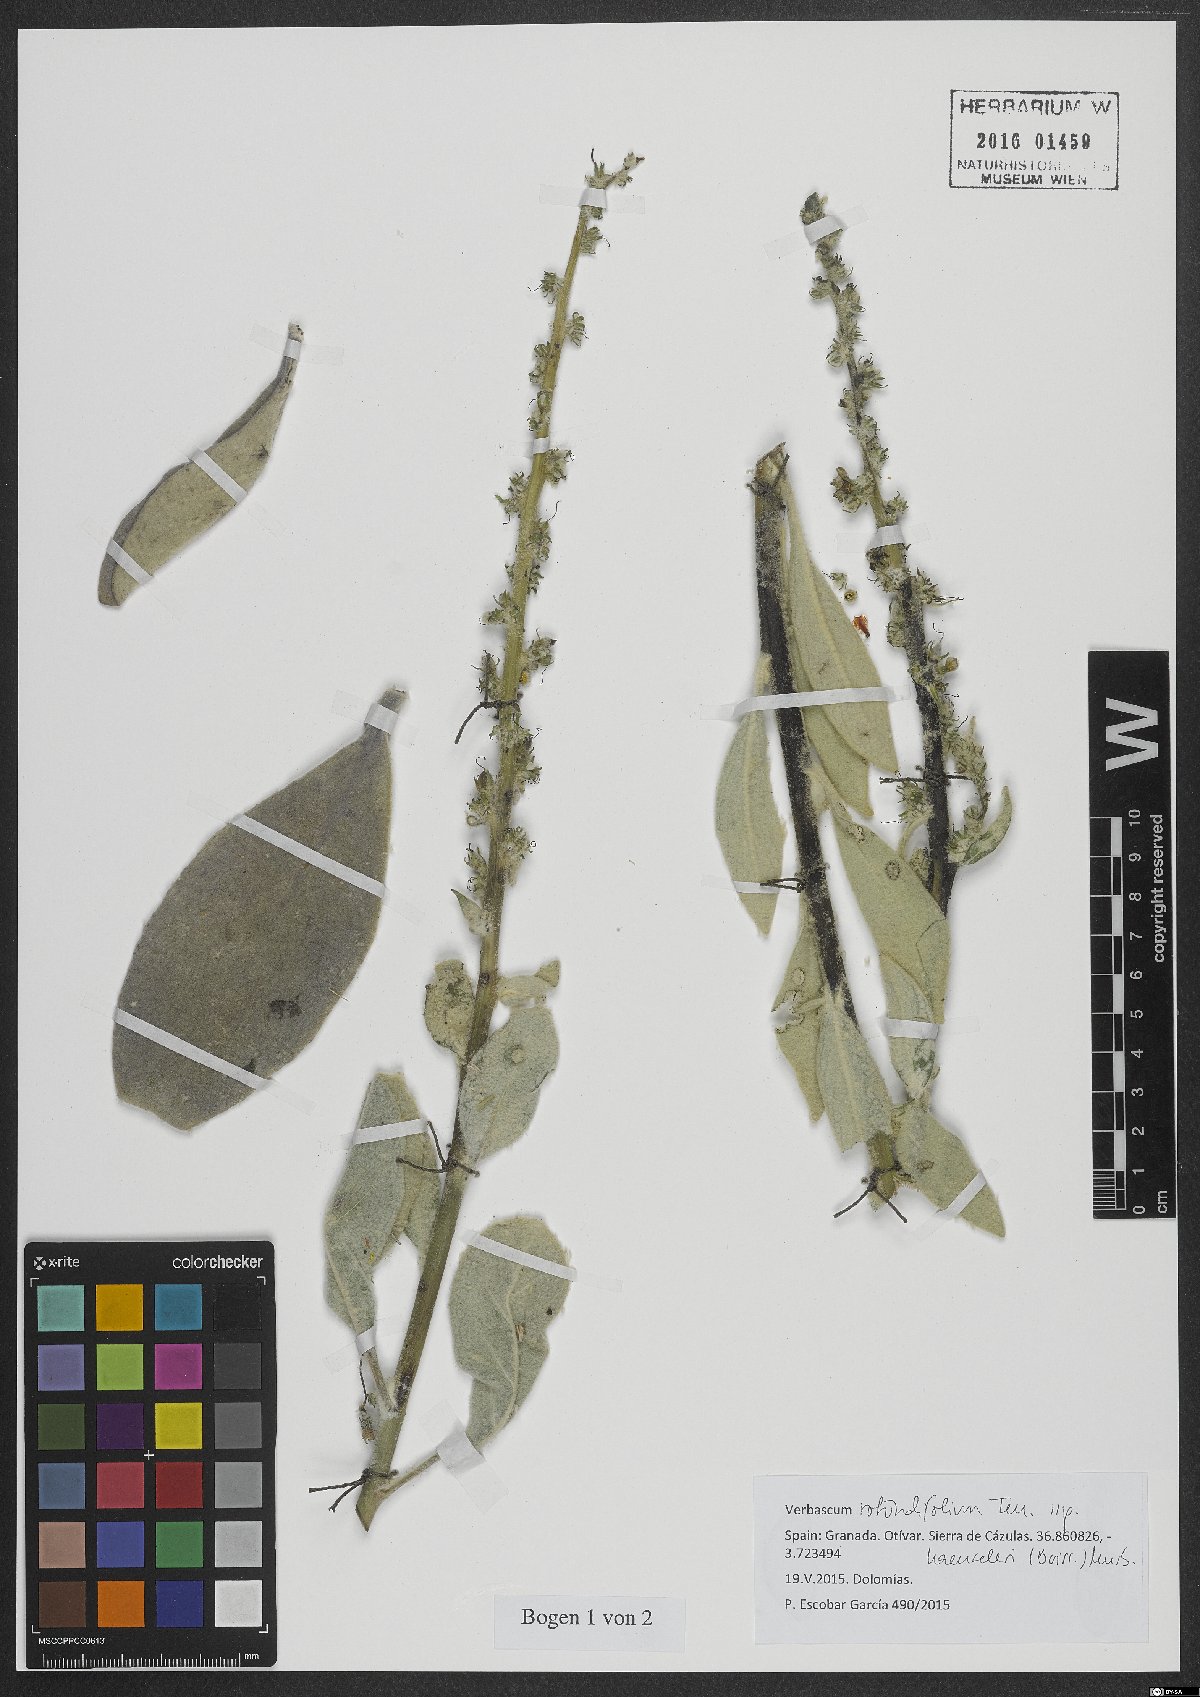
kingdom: Plantae
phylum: Tracheophyta
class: Magnoliopsida
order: Lamiales
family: Scrophulariaceae
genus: Verbascum
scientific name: Verbascum rotundifolium
